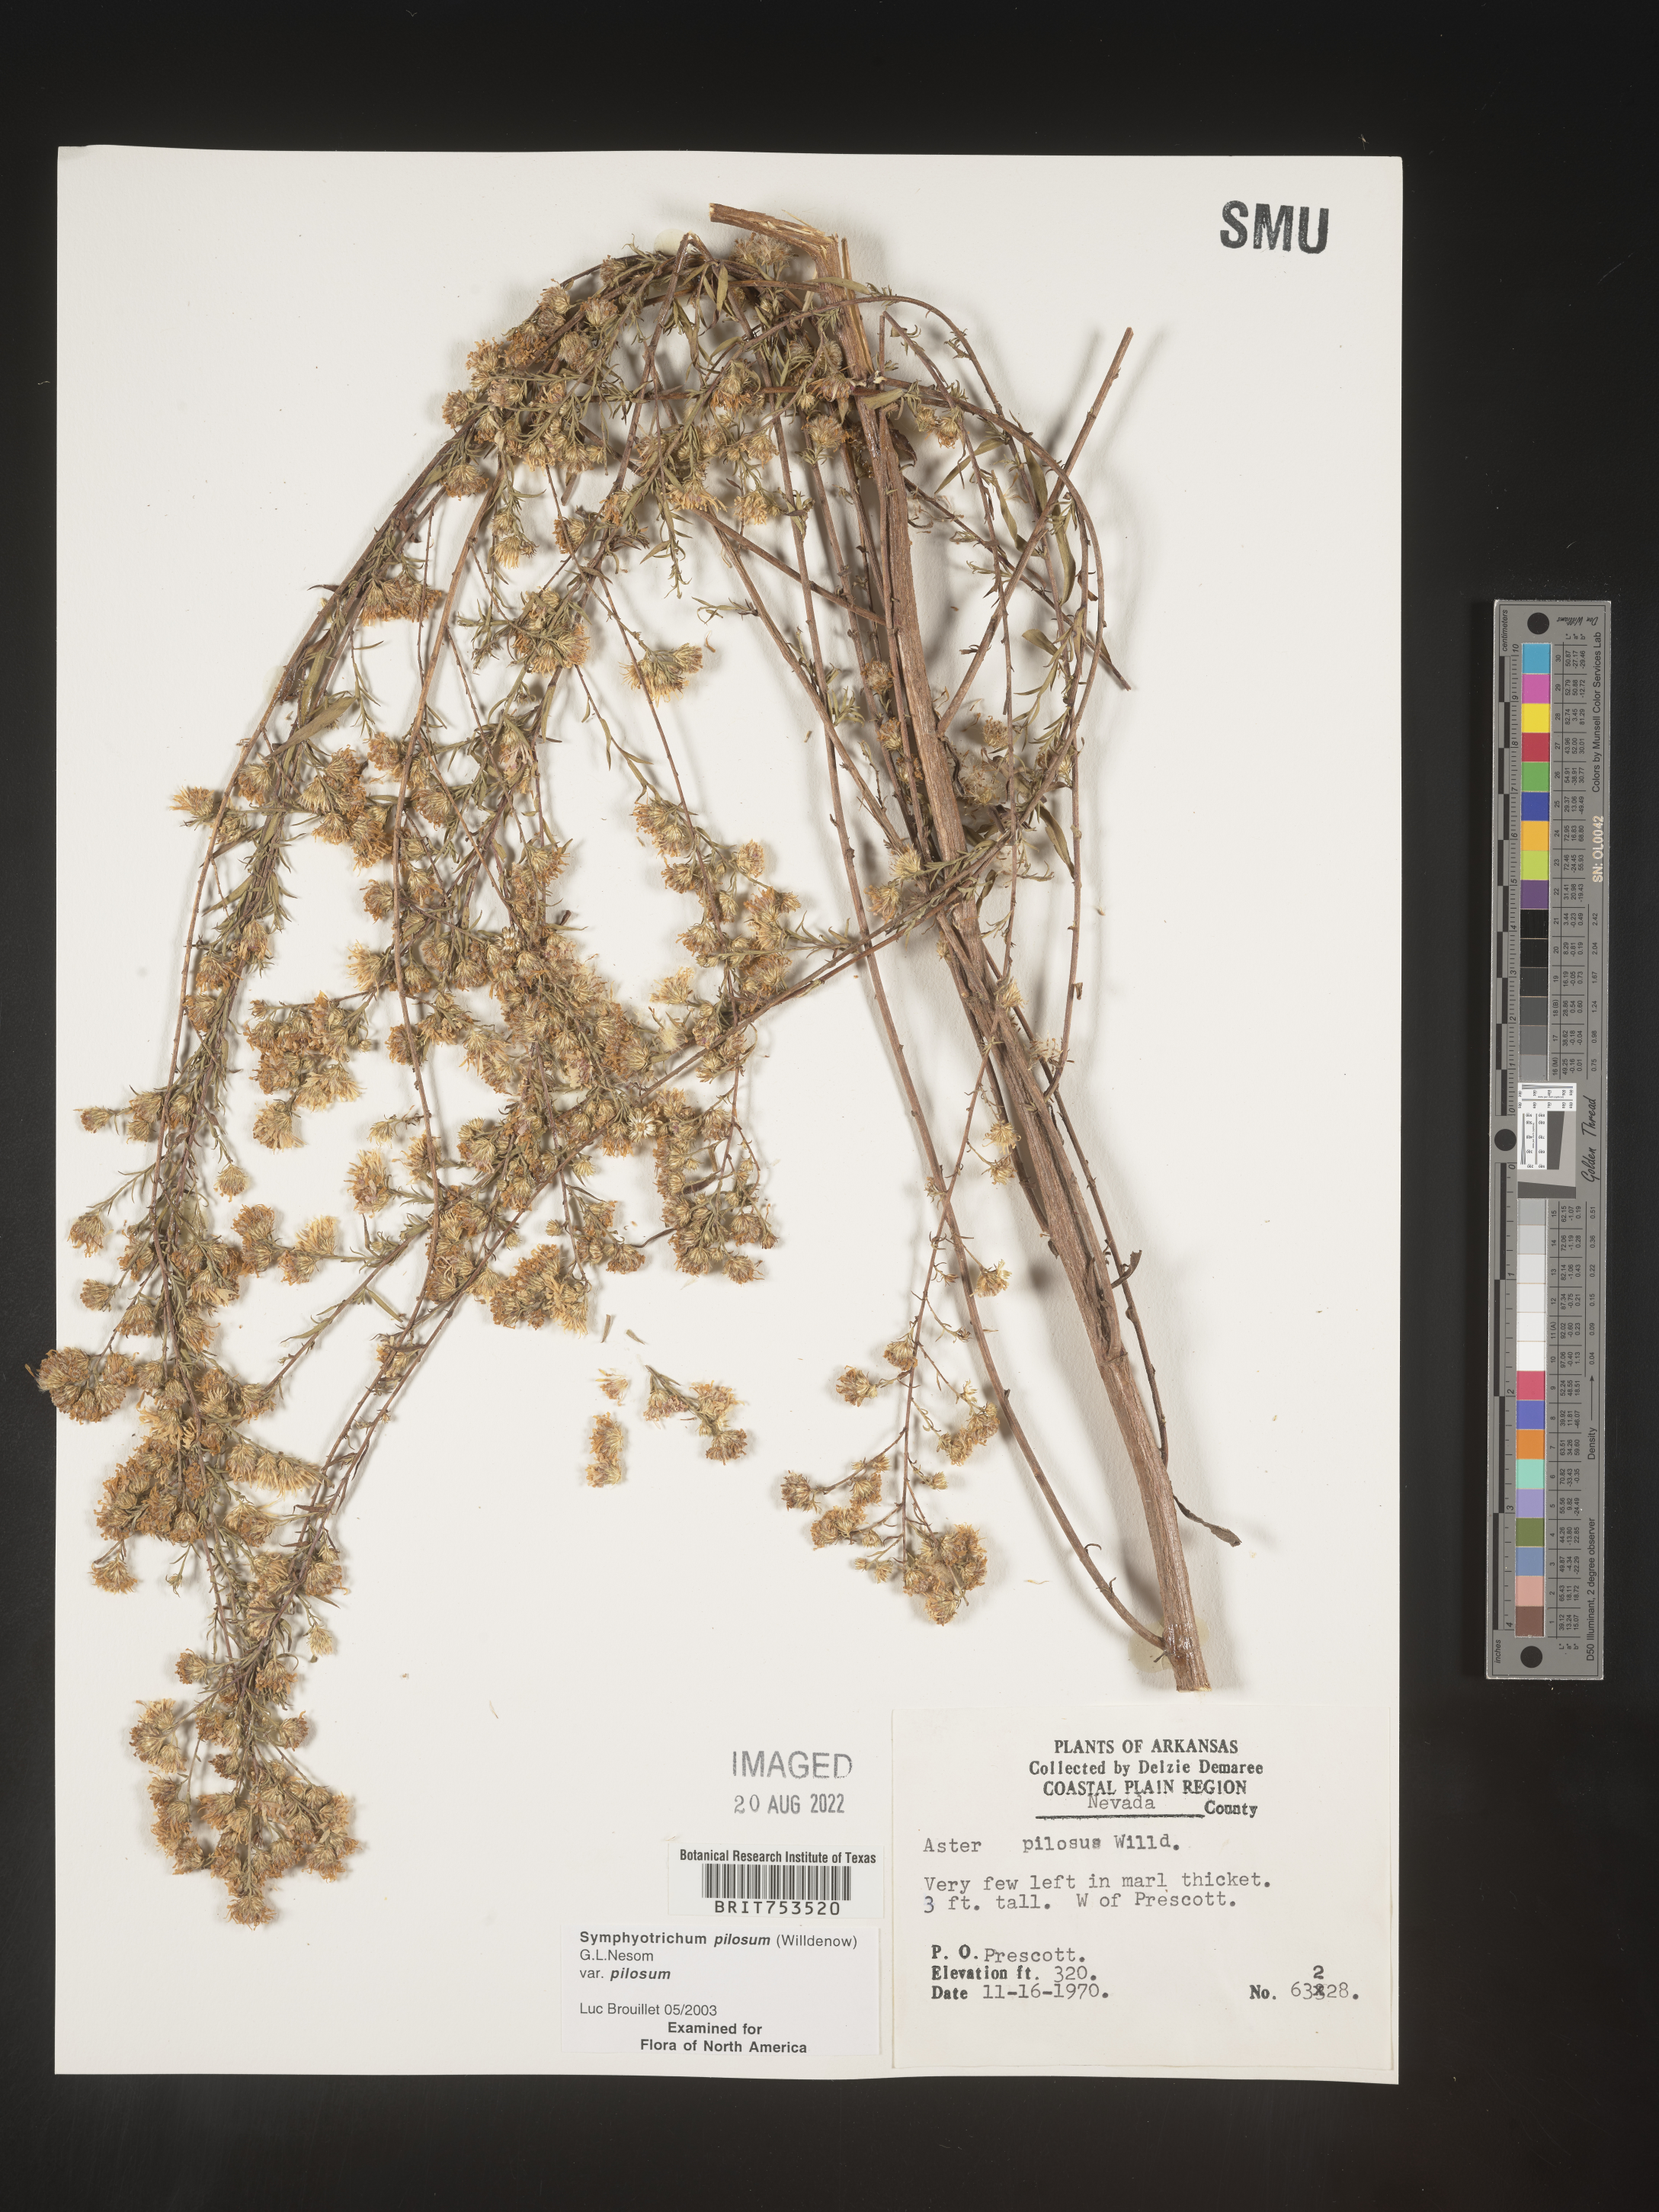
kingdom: Plantae
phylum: Tracheophyta
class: Magnoliopsida
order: Asterales
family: Asteraceae
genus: Symphyotrichum
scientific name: Symphyotrichum pilosum
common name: Awl aster
